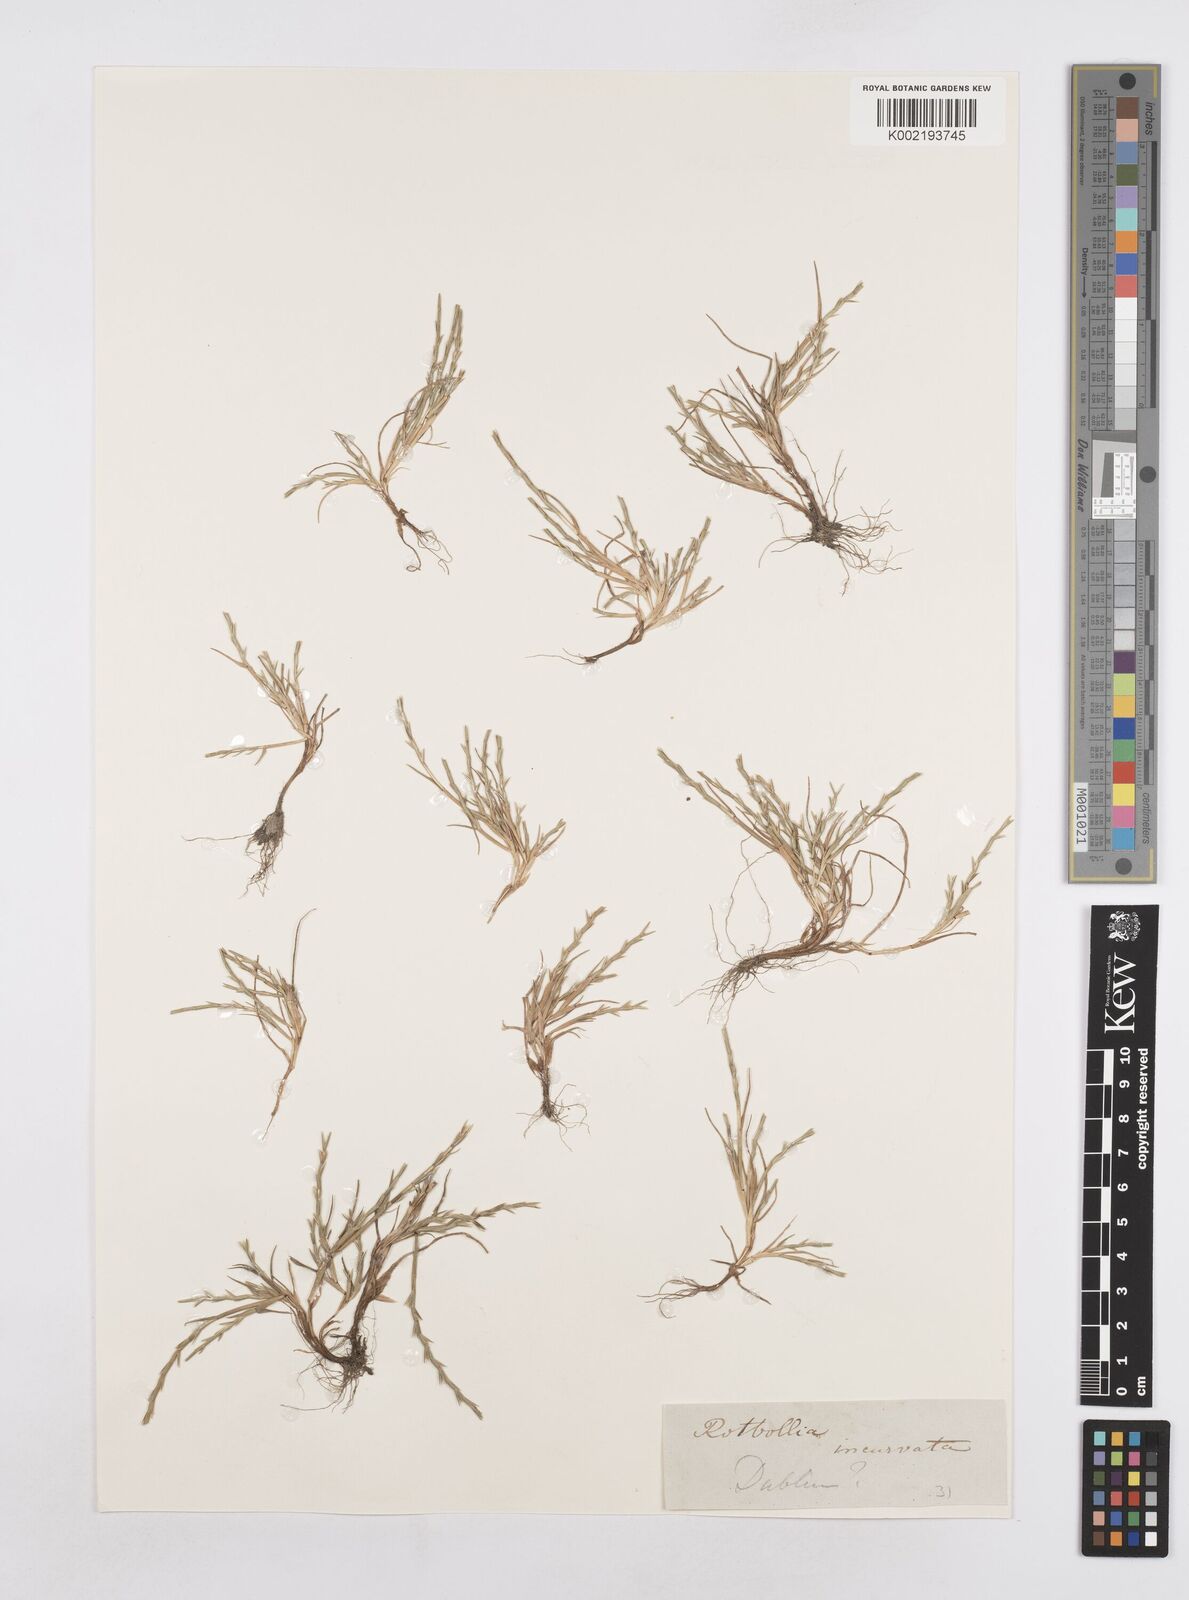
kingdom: Plantae
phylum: Tracheophyta
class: Liliopsida
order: Poales
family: Poaceae
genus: Parapholis
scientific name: Parapholis strigosa
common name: Hard-grass
